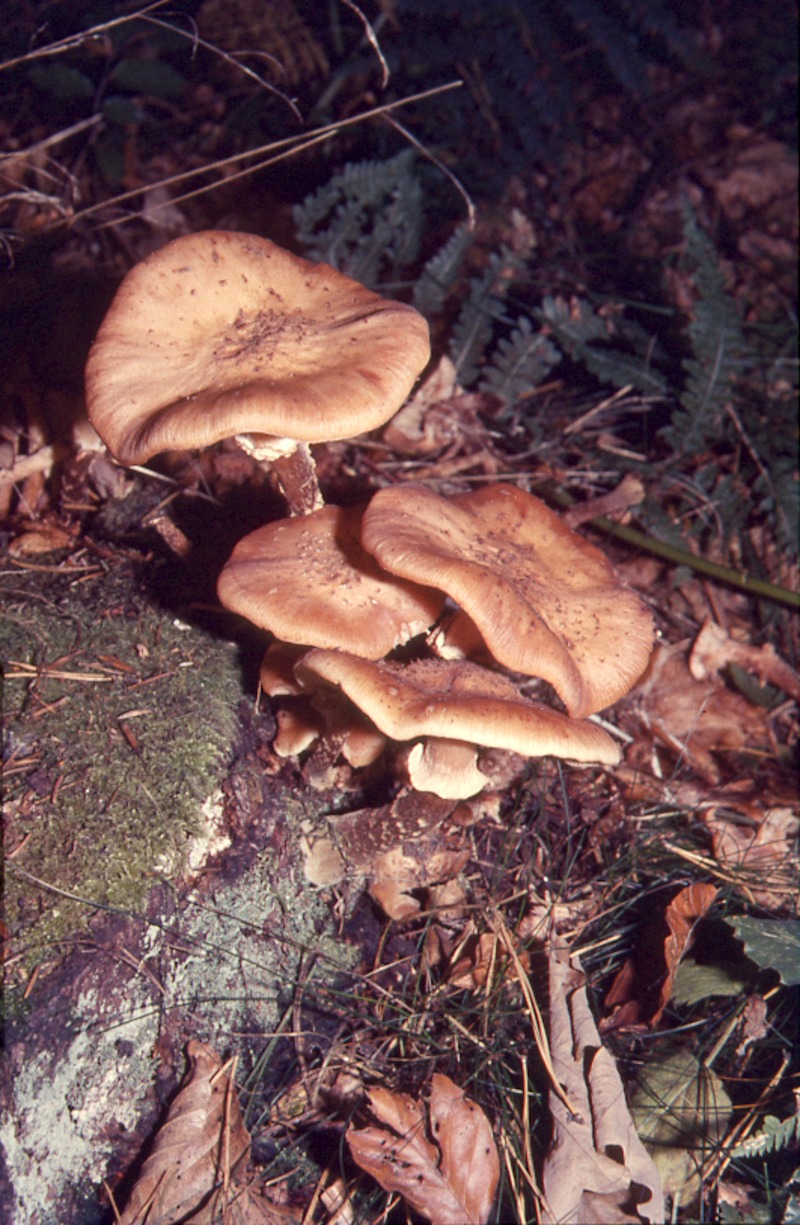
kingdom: Fungi
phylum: Basidiomycota
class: Agaricomycetes
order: Agaricales
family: Physalacriaceae
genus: Armillaria
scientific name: Armillaria mellea
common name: Honey fungus
